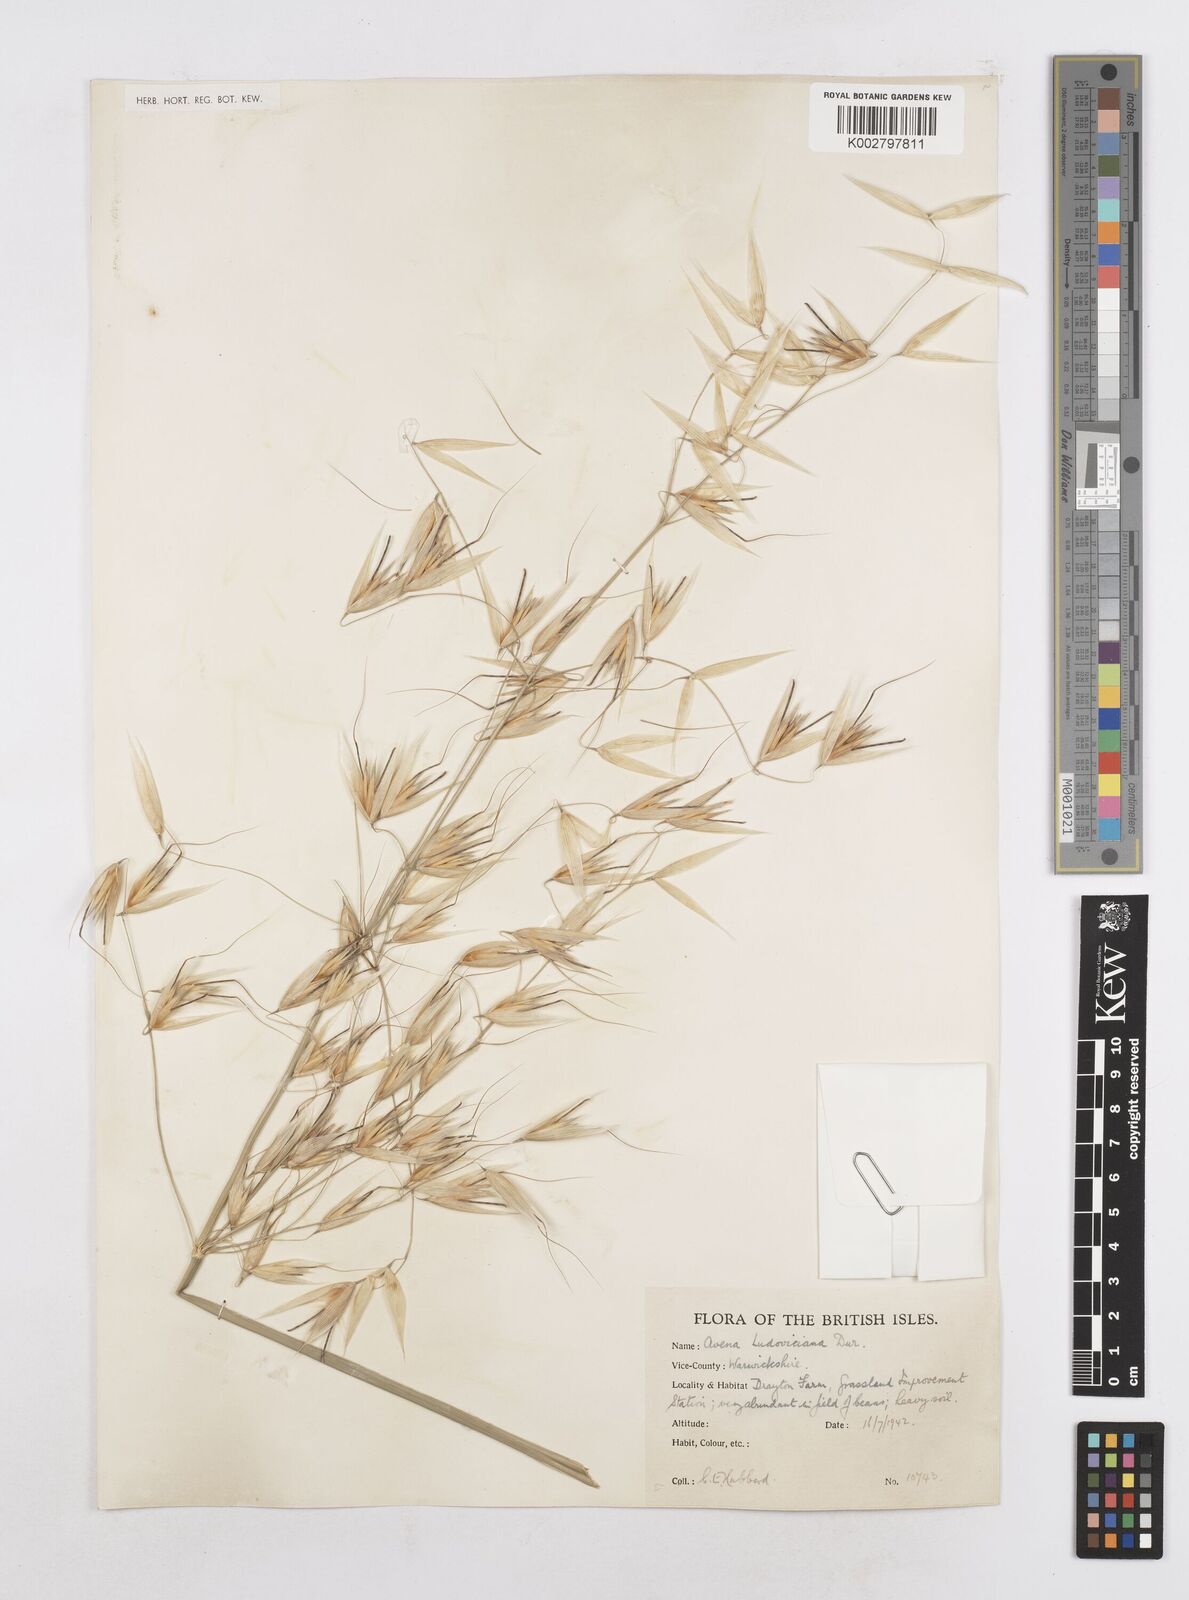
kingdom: Plantae
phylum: Tracheophyta
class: Liliopsida
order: Poales
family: Poaceae
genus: Avena
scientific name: Avena sterilis
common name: Animated oat
